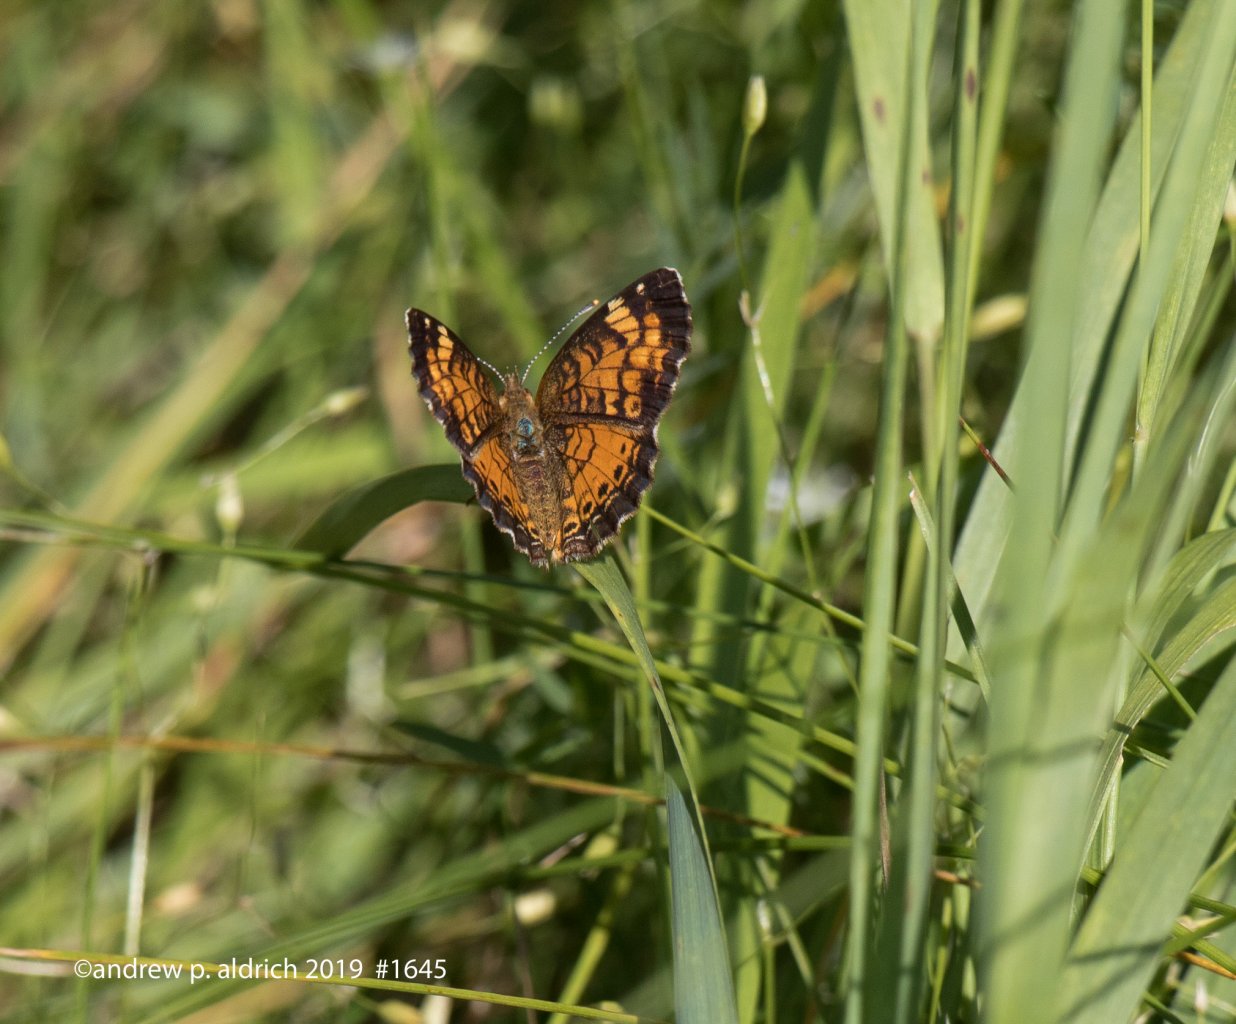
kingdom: Animalia
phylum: Arthropoda
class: Insecta
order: Lepidoptera
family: Nymphalidae
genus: Phyciodes
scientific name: Phyciodes
